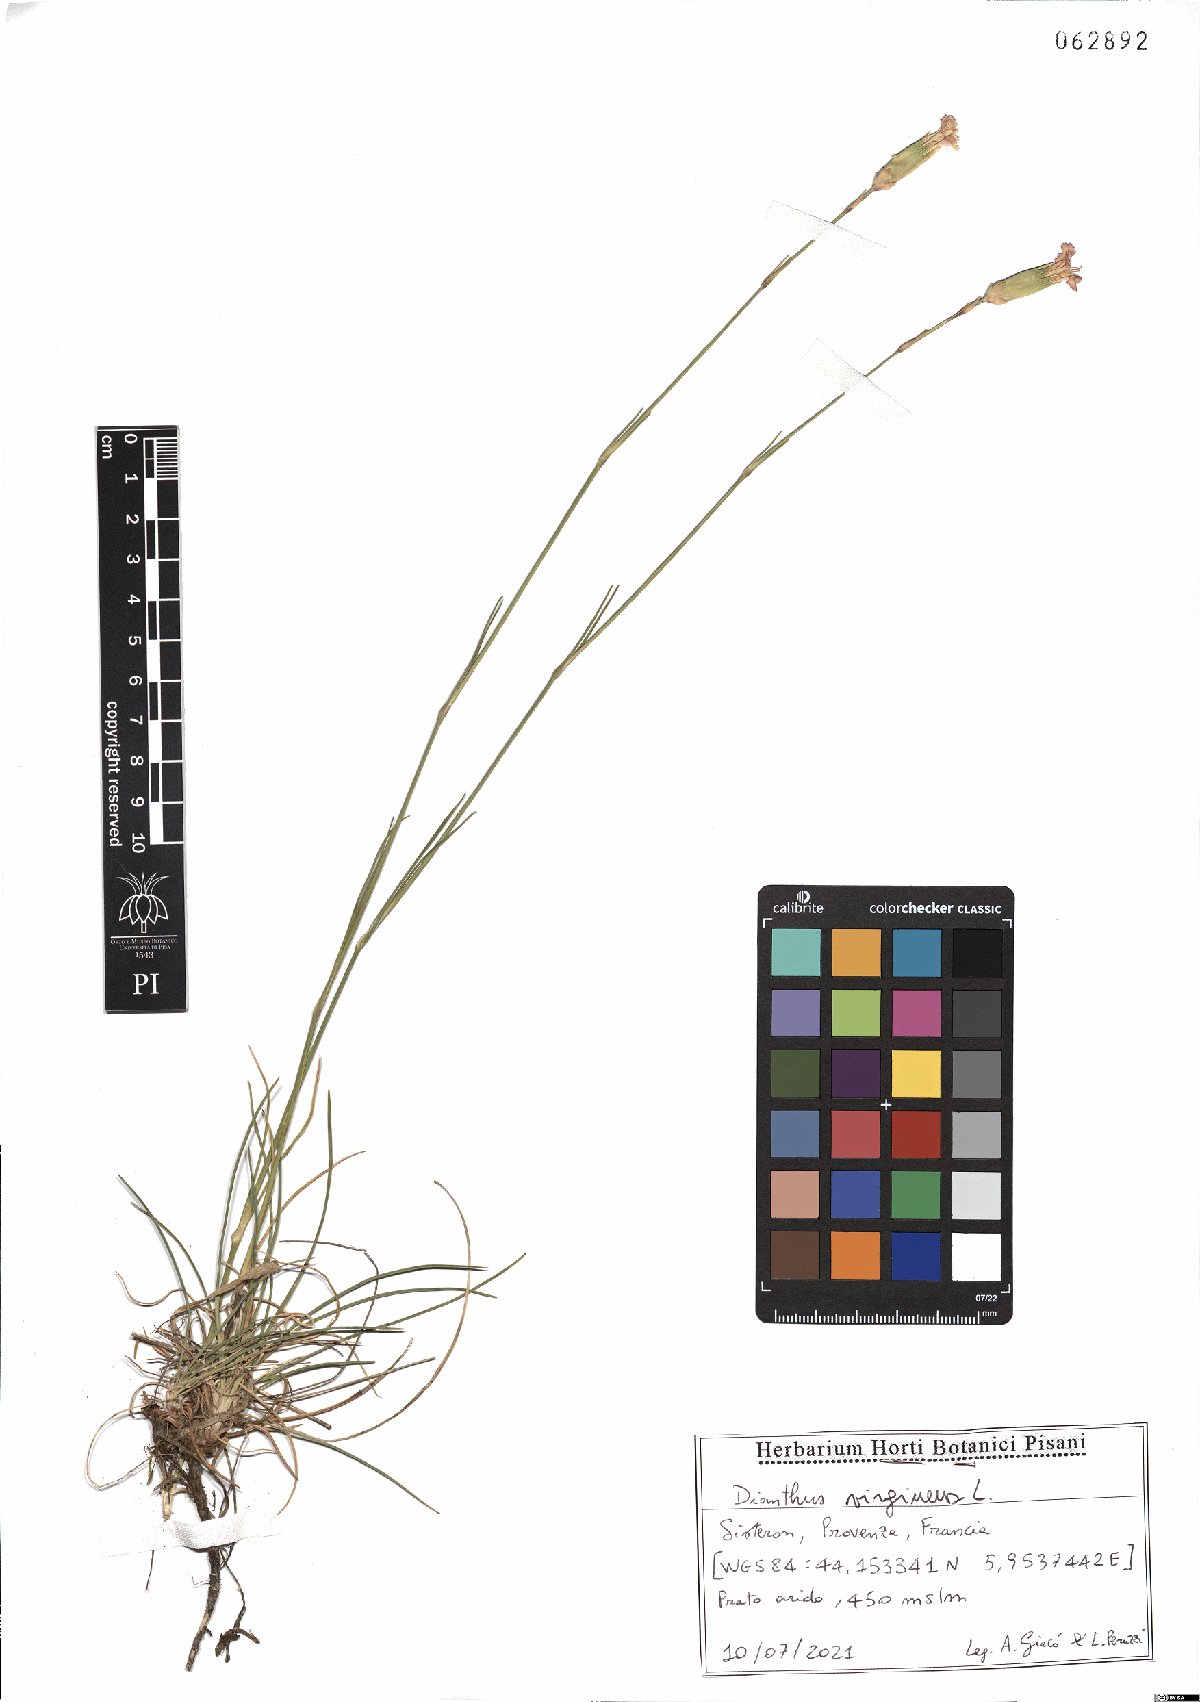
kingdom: Plantae
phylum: Tracheophyta
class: Magnoliopsida
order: Caryophyllales
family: Caryophyllaceae
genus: Dianthus
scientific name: Dianthus virgineus
